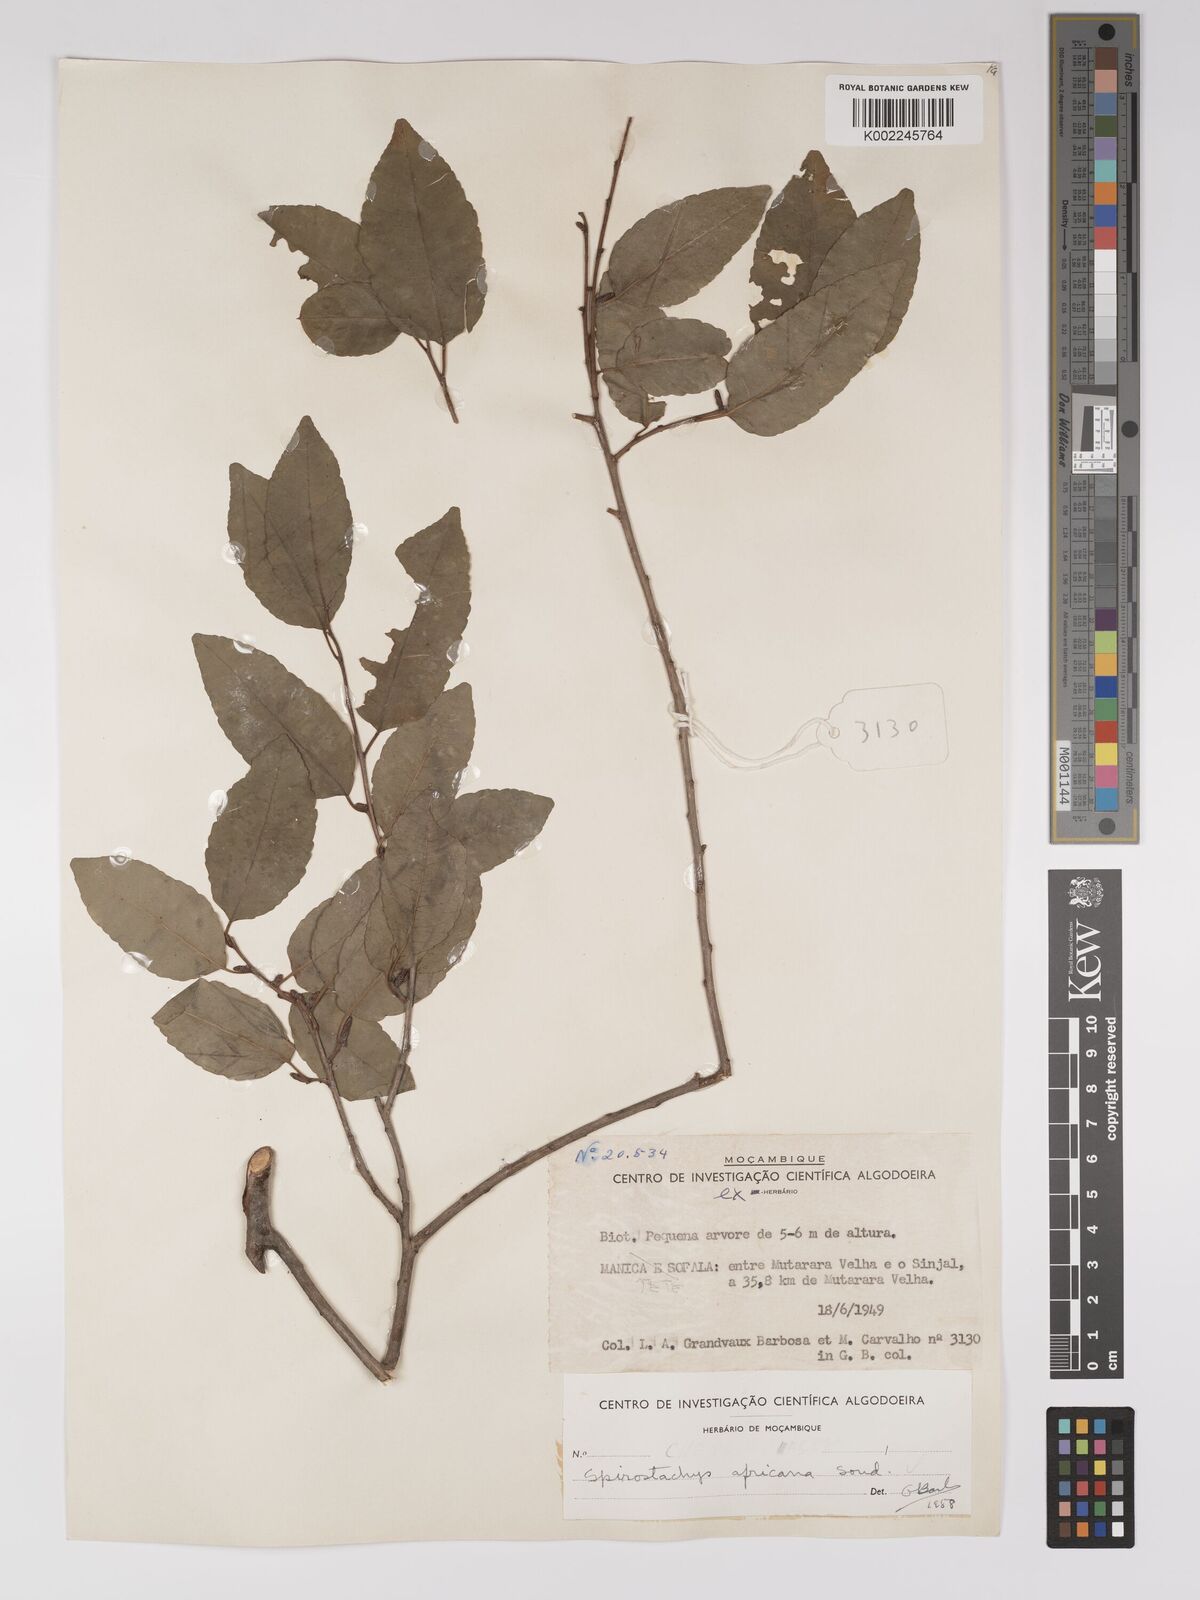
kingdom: Plantae
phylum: Tracheophyta
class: Magnoliopsida
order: Malpighiales
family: Euphorbiaceae
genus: Spirostachys
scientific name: Spirostachys africana
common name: Tamboti
